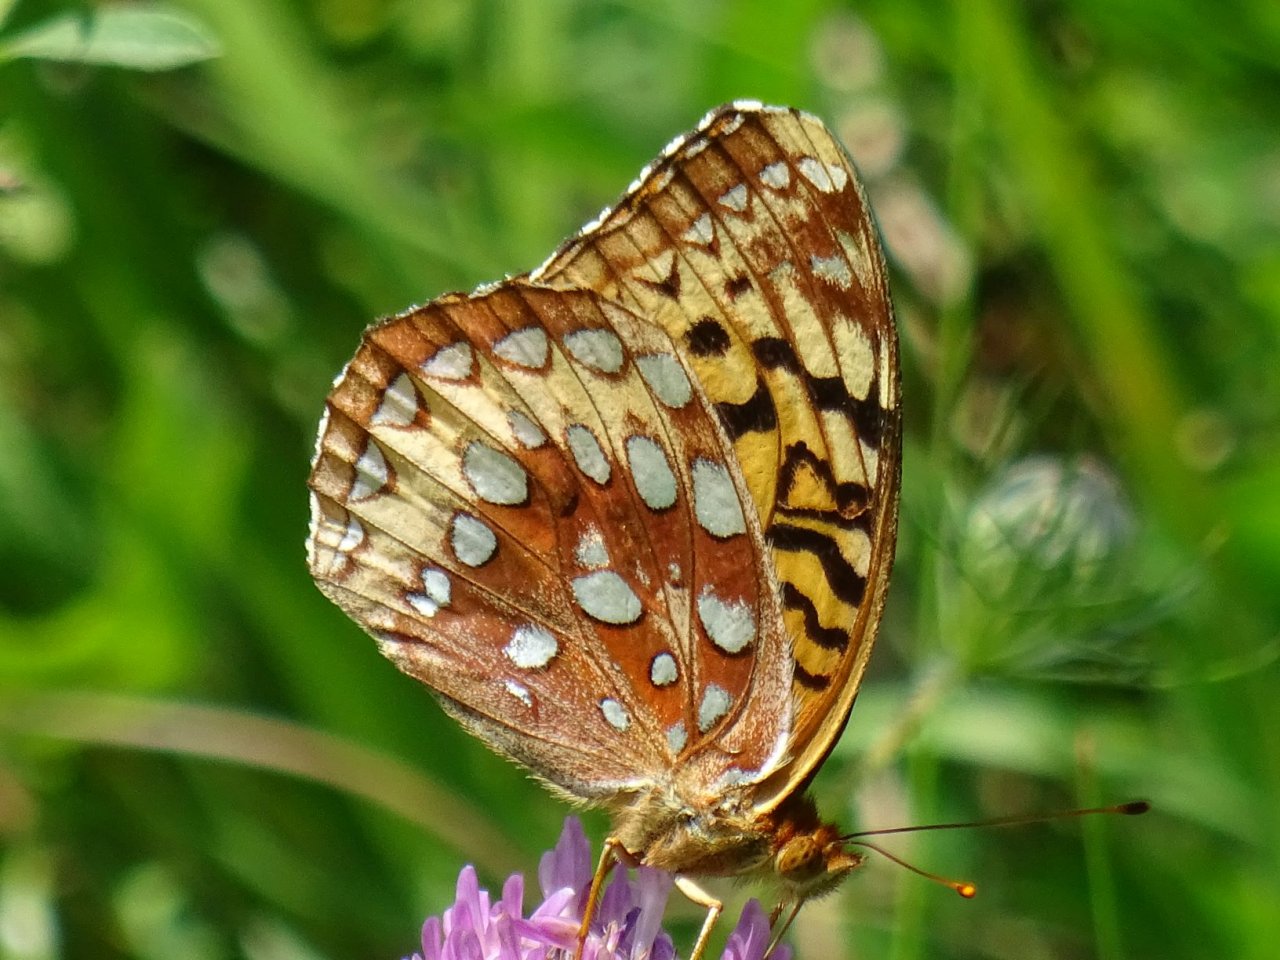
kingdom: Animalia
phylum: Arthropoda
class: Insecta
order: Lepidoptera
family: Nymphalidae
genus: Speyeria
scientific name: Speyeria cybele
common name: Great Spangled Fritillary
